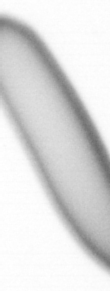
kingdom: Animalia
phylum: Chordata
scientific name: Chordata
